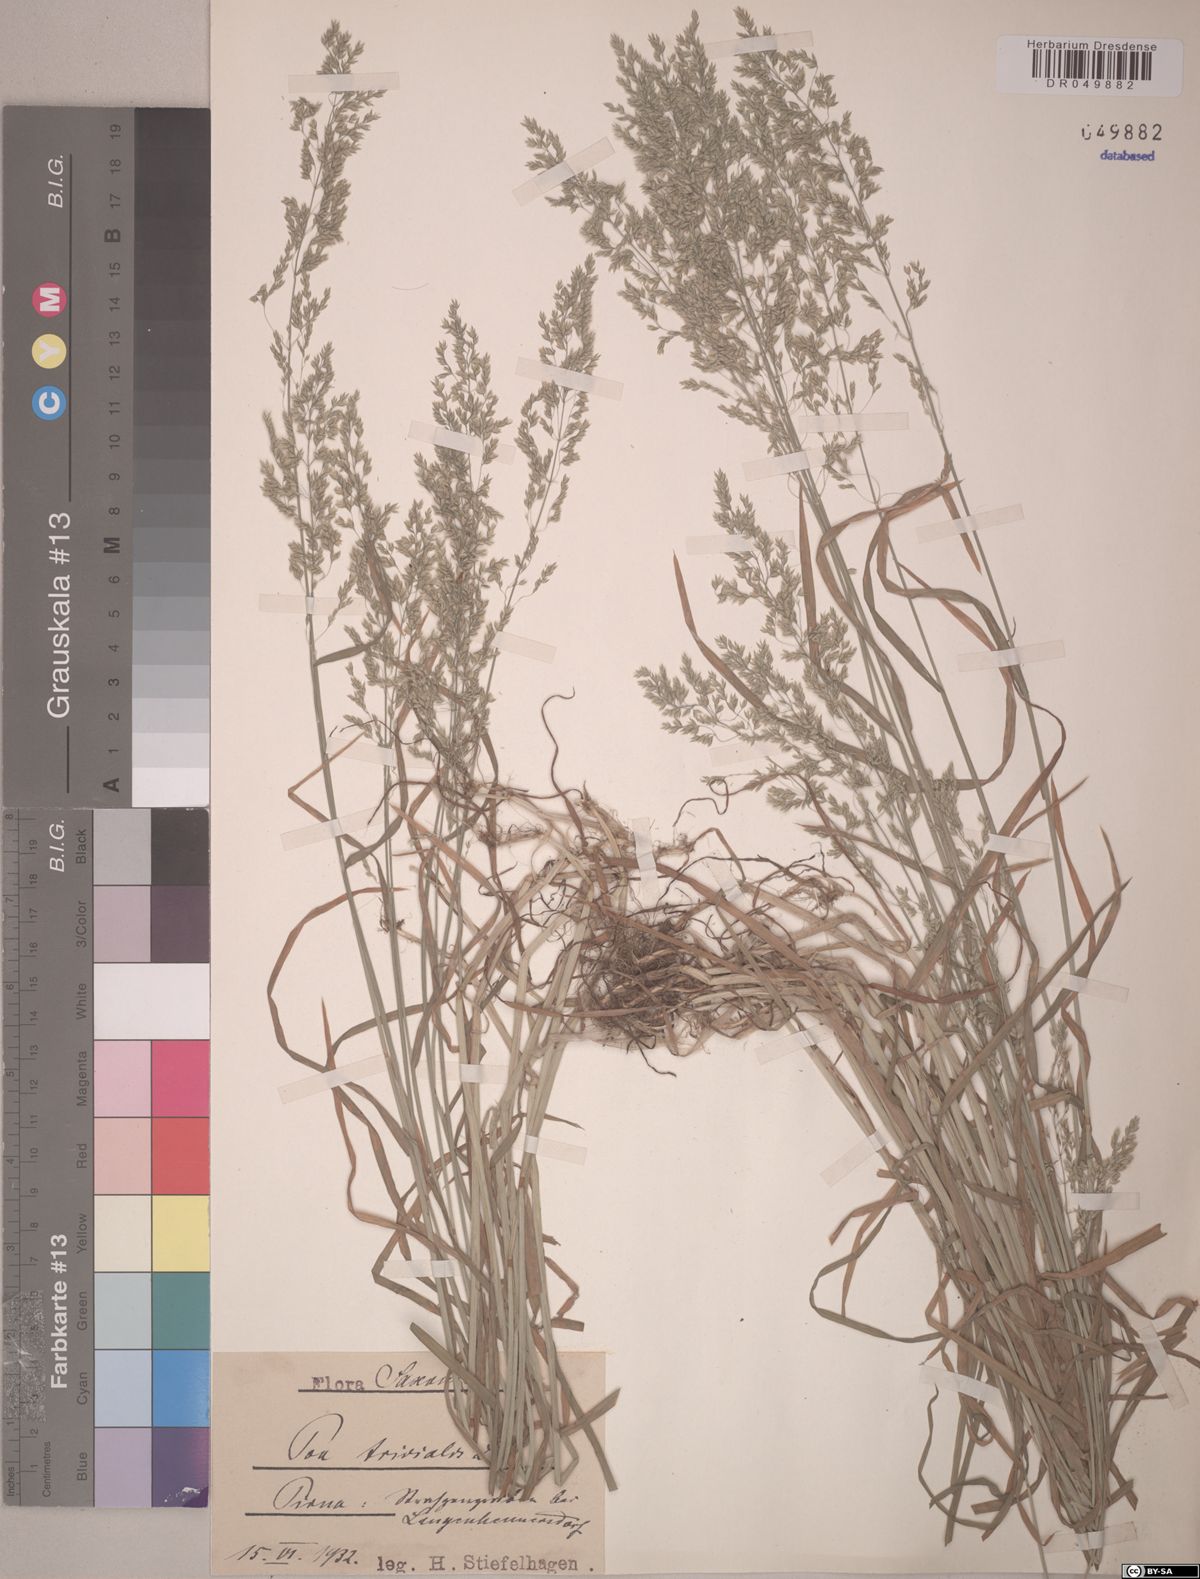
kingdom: Plantae
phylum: Tracheophyta
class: Liliopsida
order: Poales
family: Poaceae
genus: Poa
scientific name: Poa trivialis
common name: Rough bluegrass
